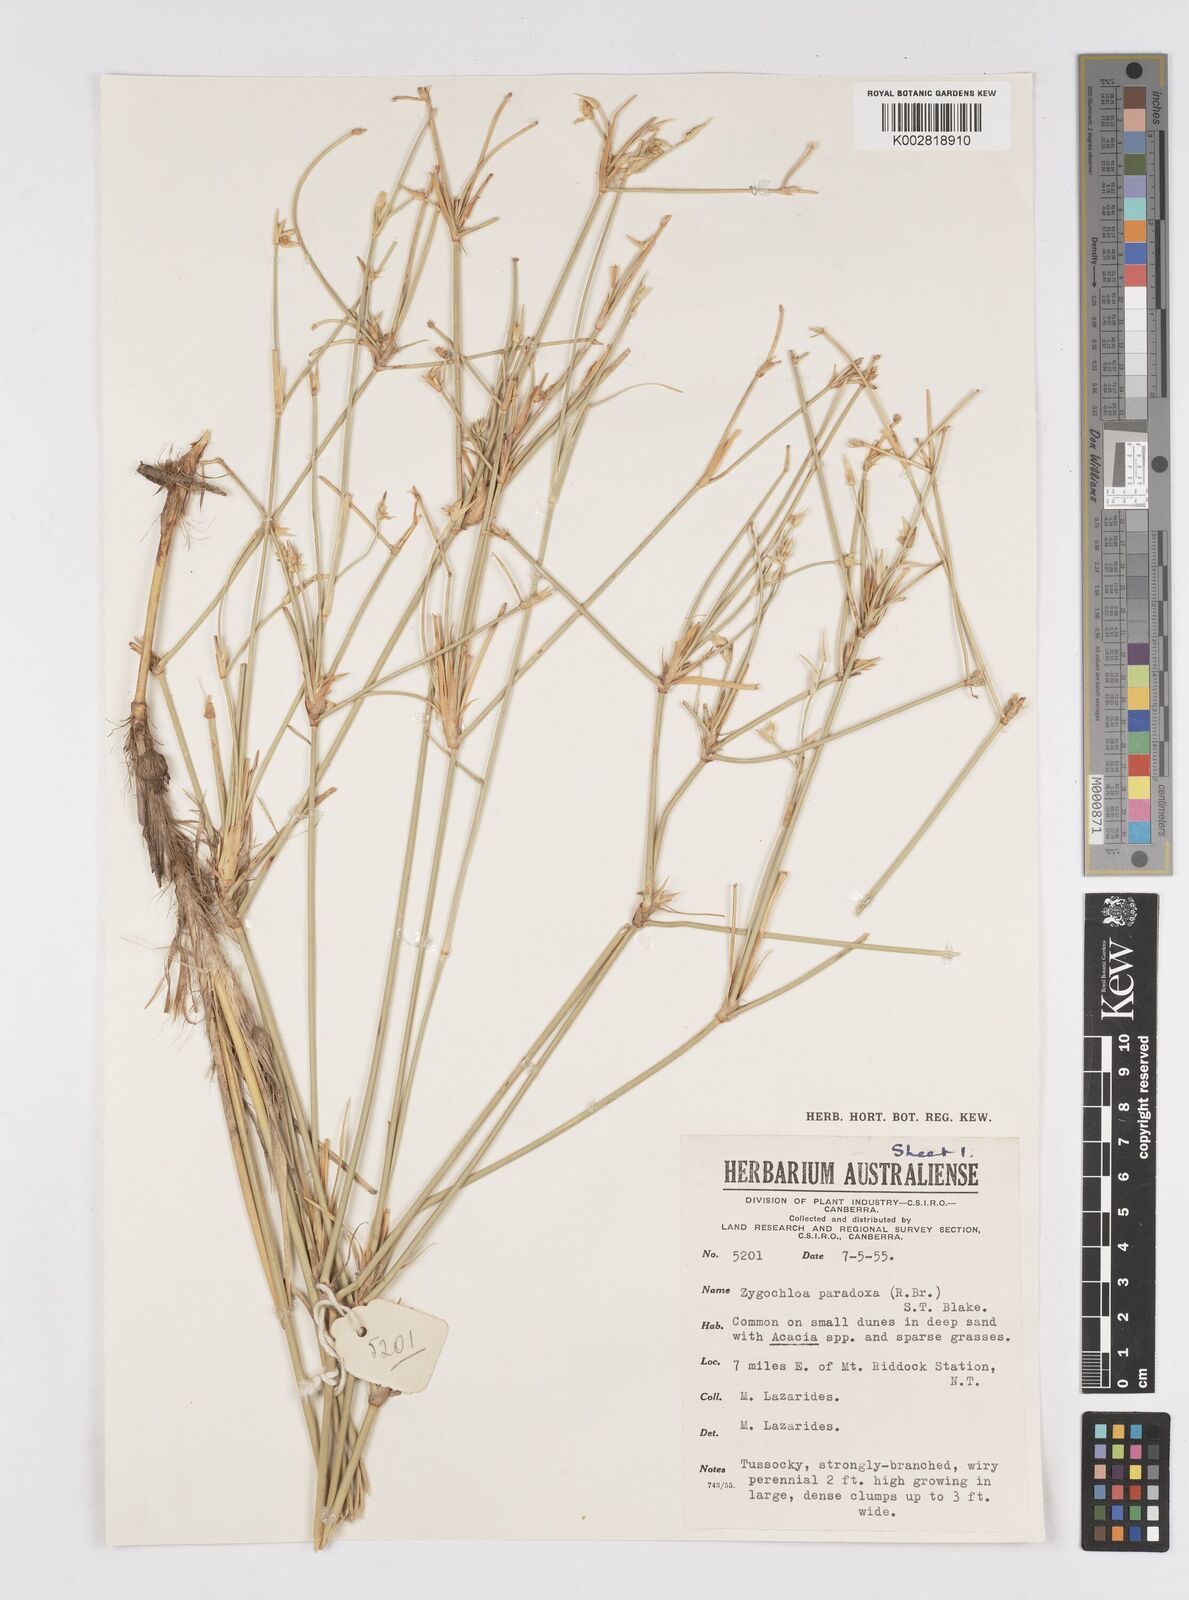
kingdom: Plantae
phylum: Tracheophyta
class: Liliopsida
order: Poales
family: Poaceae
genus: Zygochloa
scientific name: Zygochloa paradoxa
